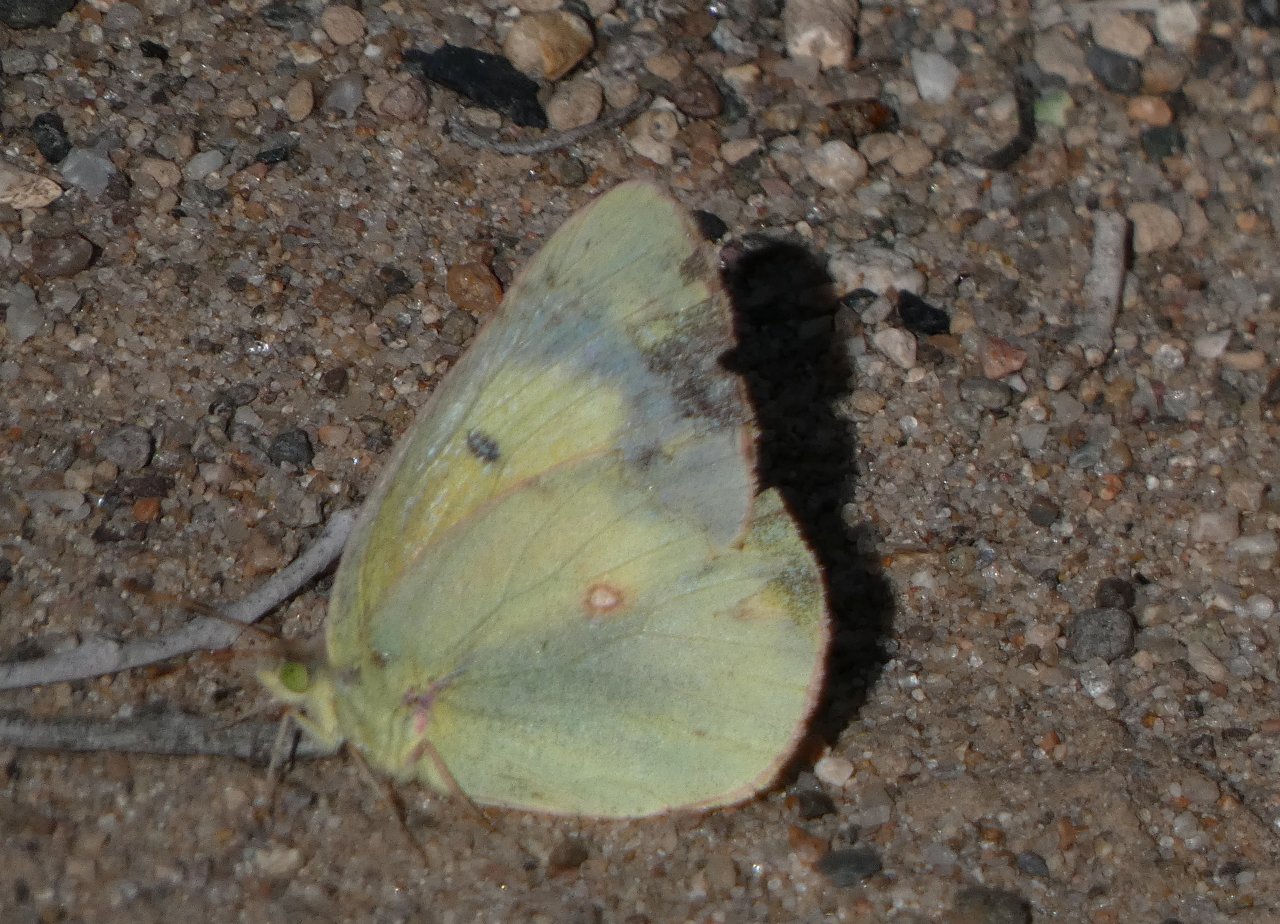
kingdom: Animalia
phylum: Arthropoda
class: Insecta
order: Lepidoptera
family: Pieridae
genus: Colias
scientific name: Colias eurytheme
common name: Orange Sulphur
